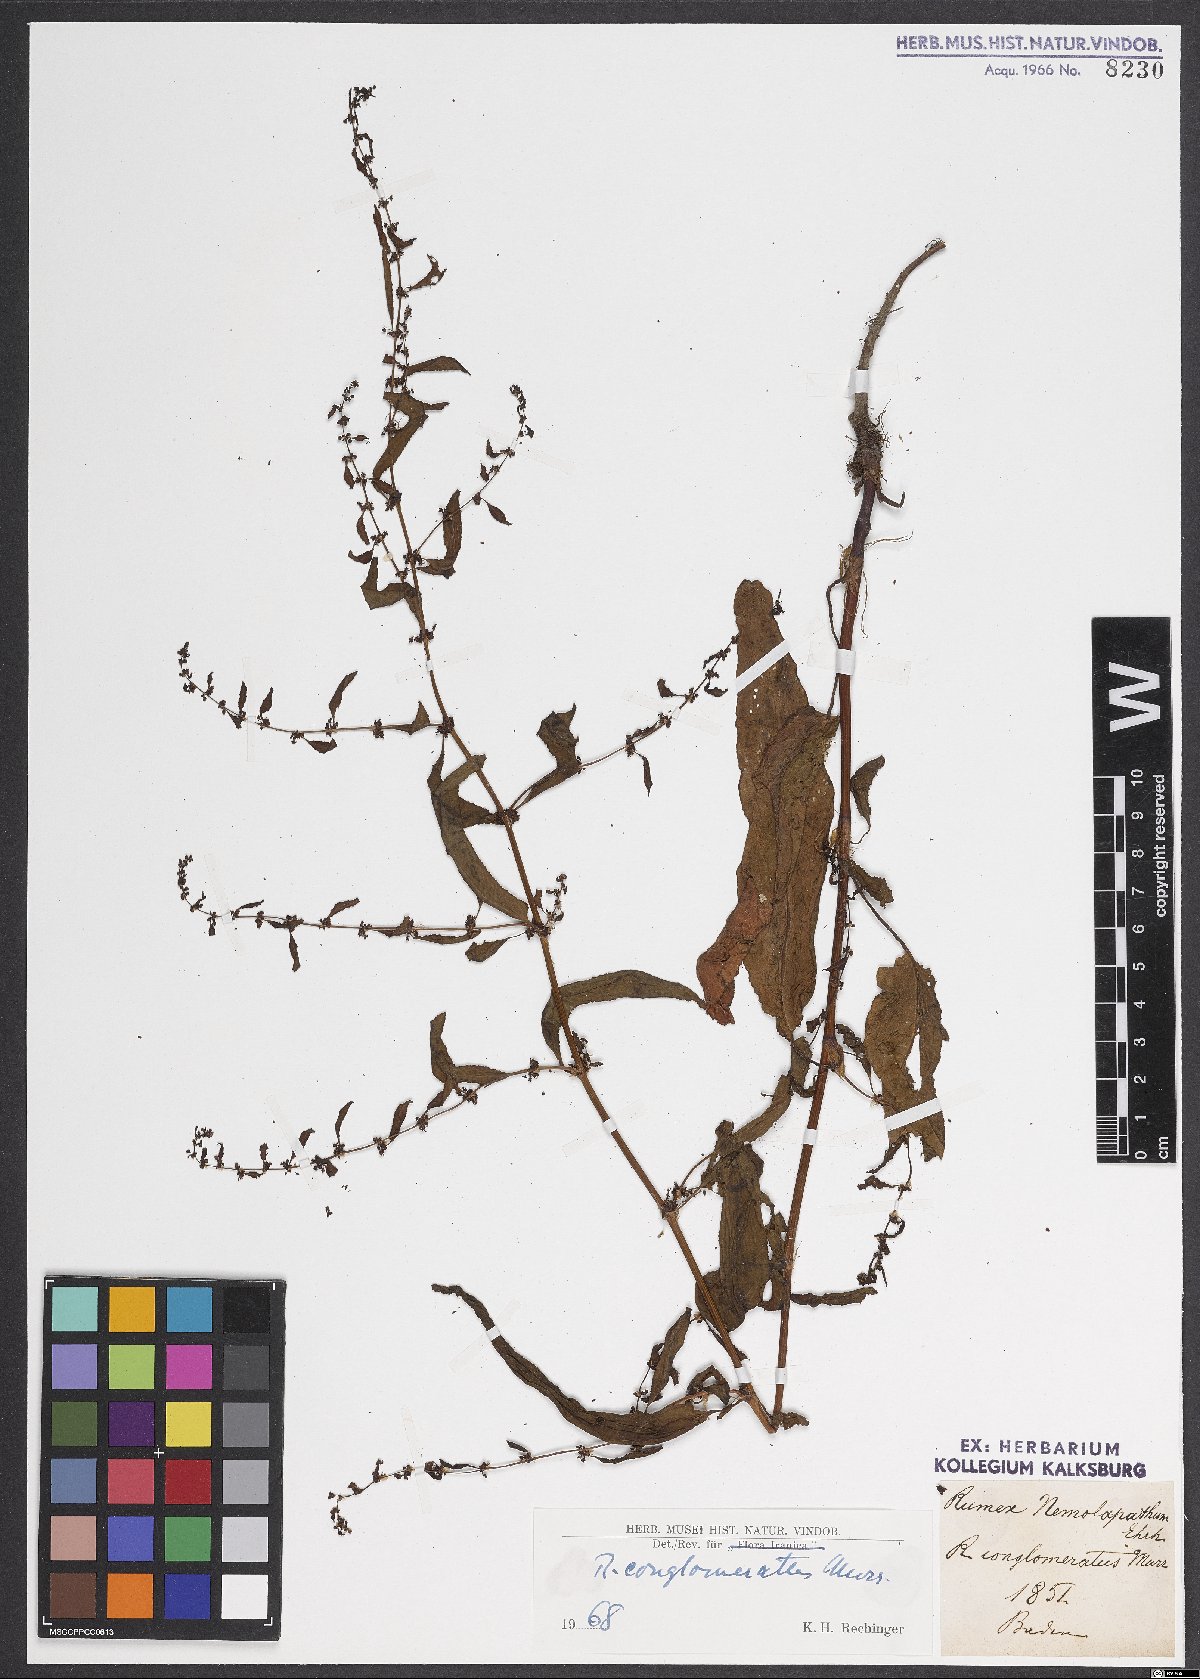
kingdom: Plantae
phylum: Tracheophyta
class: Magnoliopsida
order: Caryophyllales
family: Polygonaceae
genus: Rumex
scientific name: Rumex conglomeratus
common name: Clustered dock
